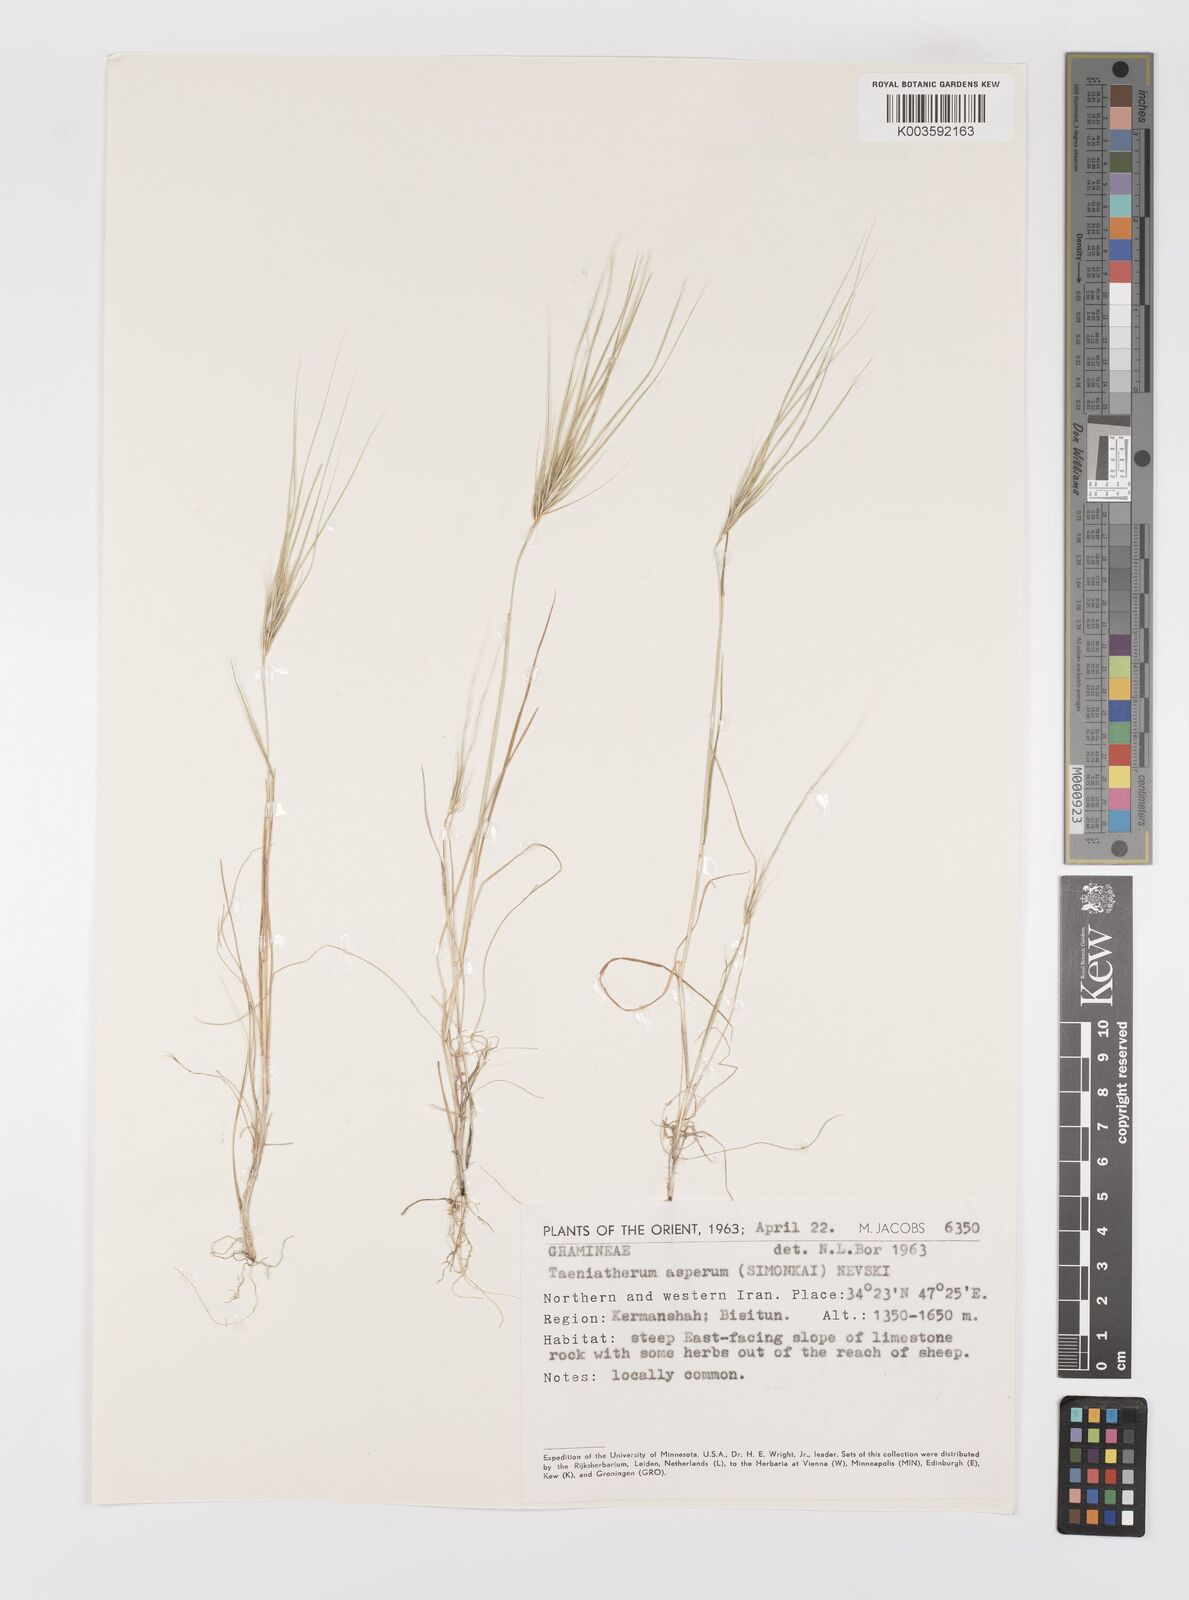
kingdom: Plantae
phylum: Tracheophyta
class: Liliopsida
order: Poales
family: Poaceae
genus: Taeniatherum
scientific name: Taeniatherum caput-medusae
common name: Medusahead
